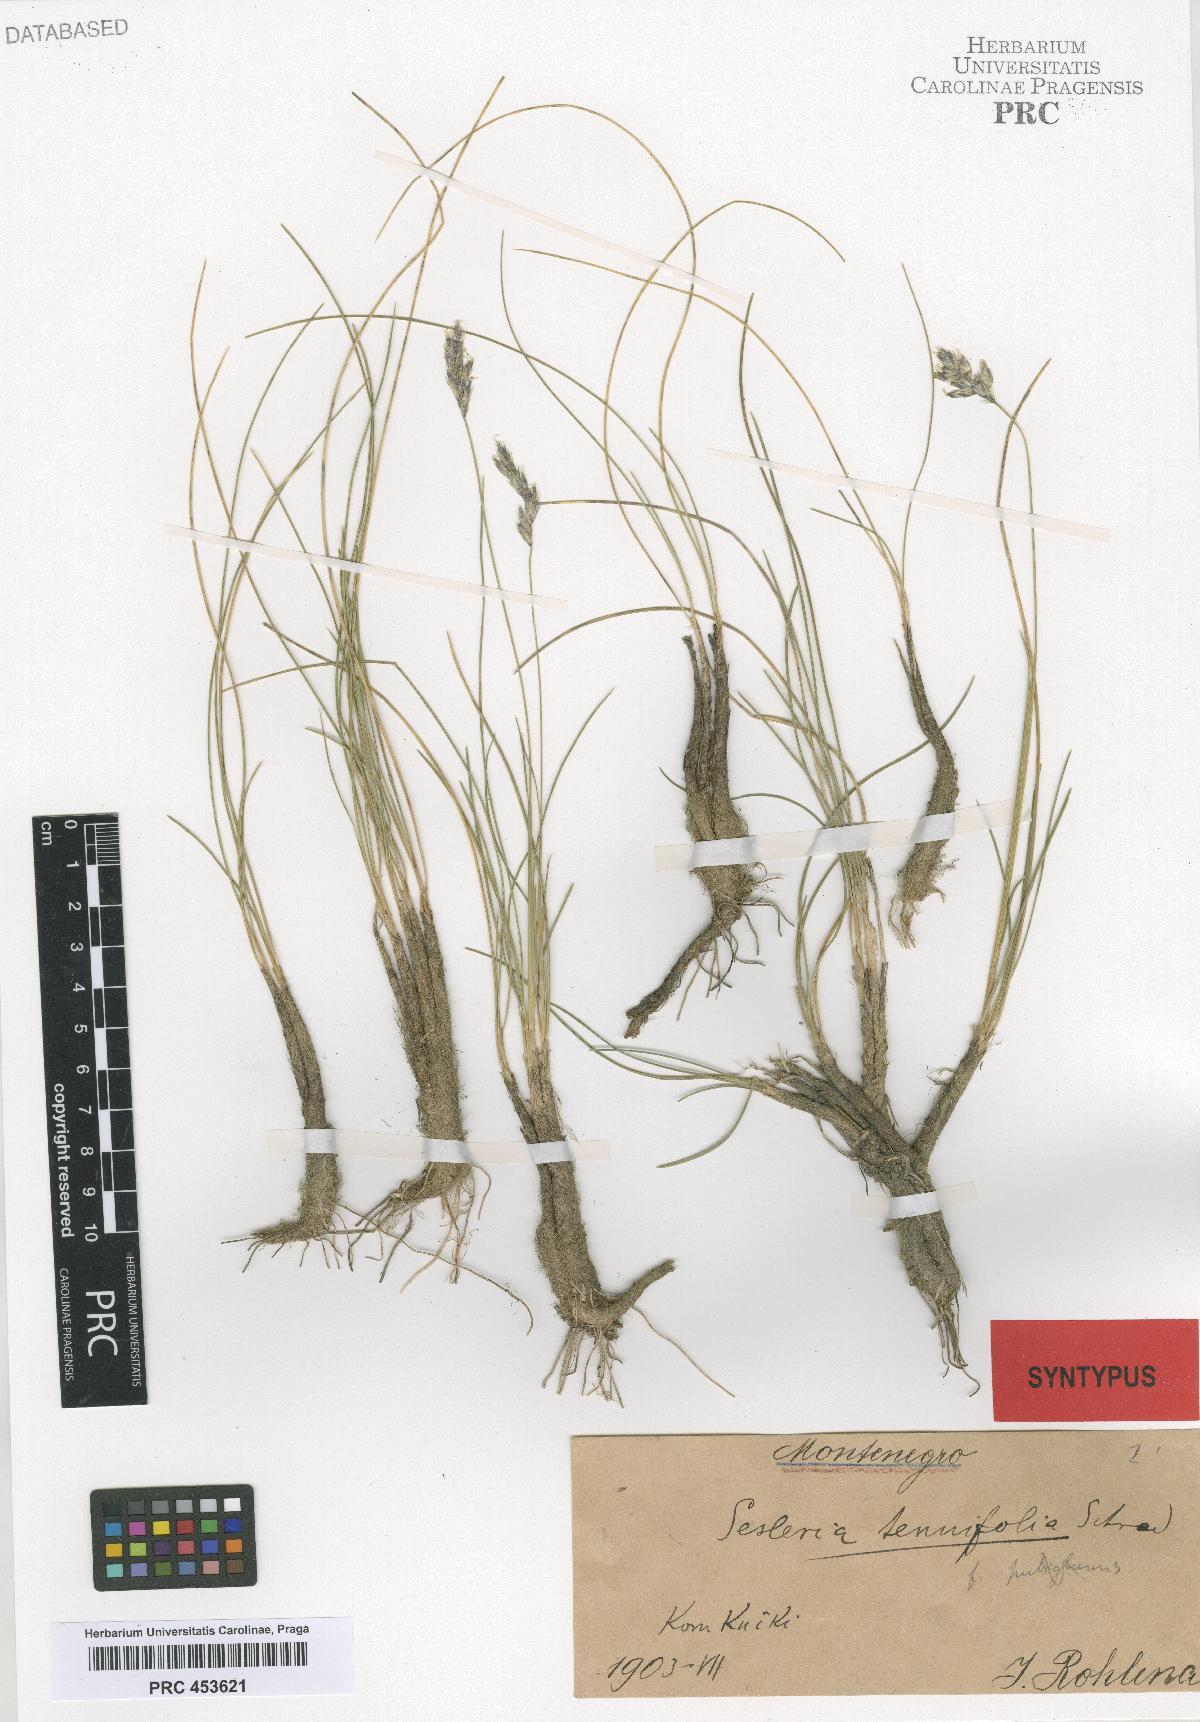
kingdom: Plantae
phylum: Tracheophyta
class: Liliopsida
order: Poales
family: Poaceae
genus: Sesleria
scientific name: Sesleria
